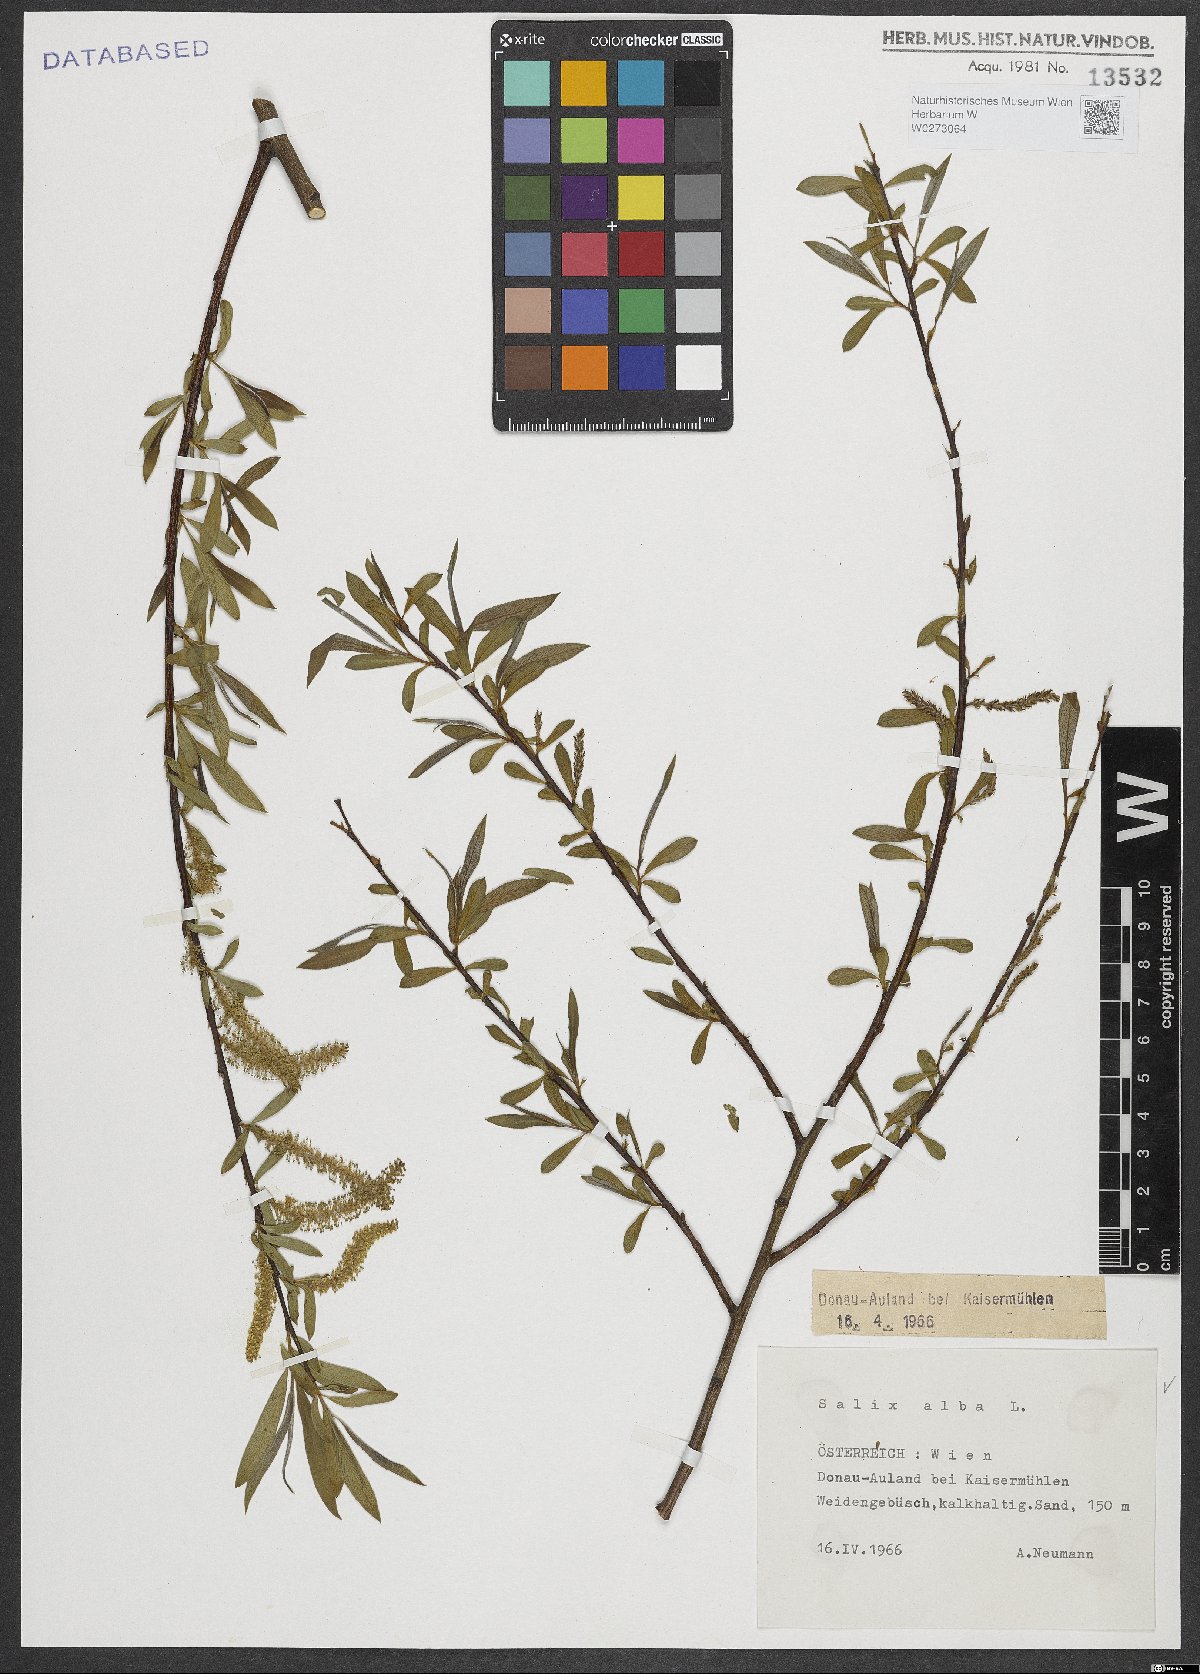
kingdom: Plantae
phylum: Tracheophyta
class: Magnoliopsida
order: Malpighiales
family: Salicaceae
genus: Salix
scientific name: Salix alba
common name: White willow
